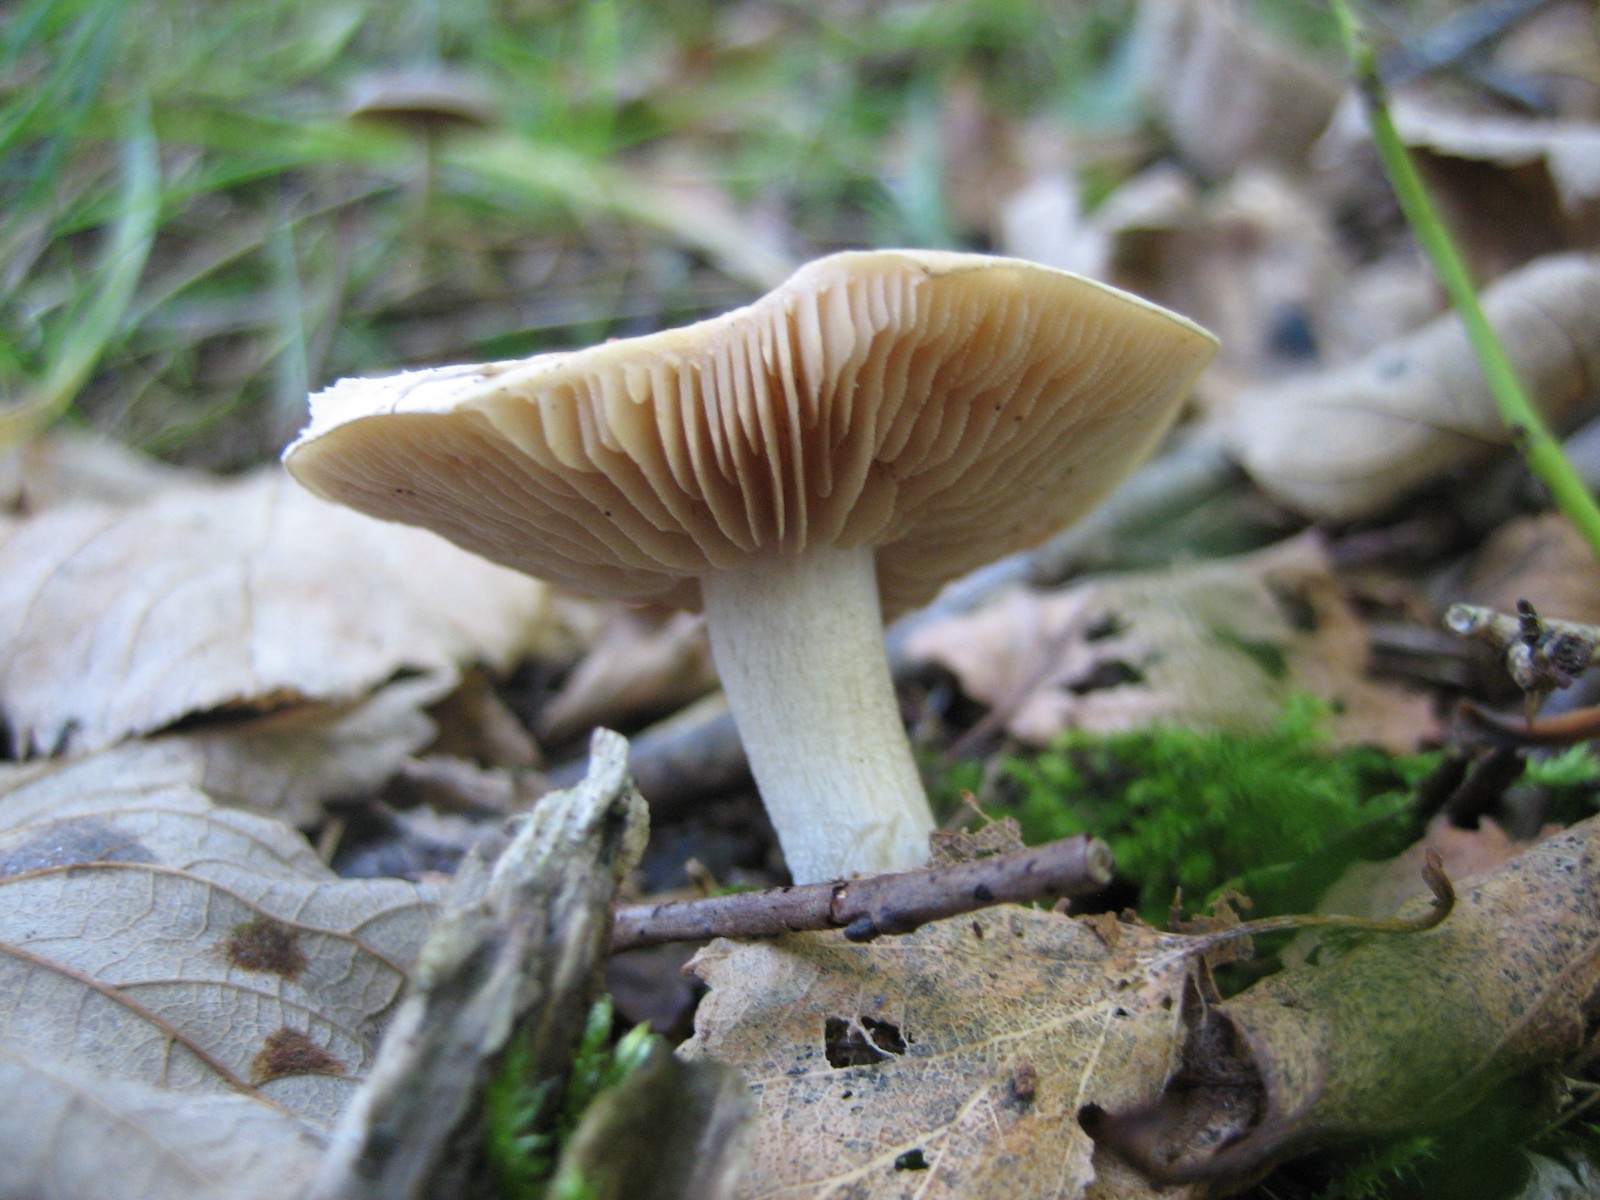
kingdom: Fungi
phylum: Basidiomycota
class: Agaricomycetes
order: Agaricales
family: Hymenogastraceae
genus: Hebeloma
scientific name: Hebeloma
